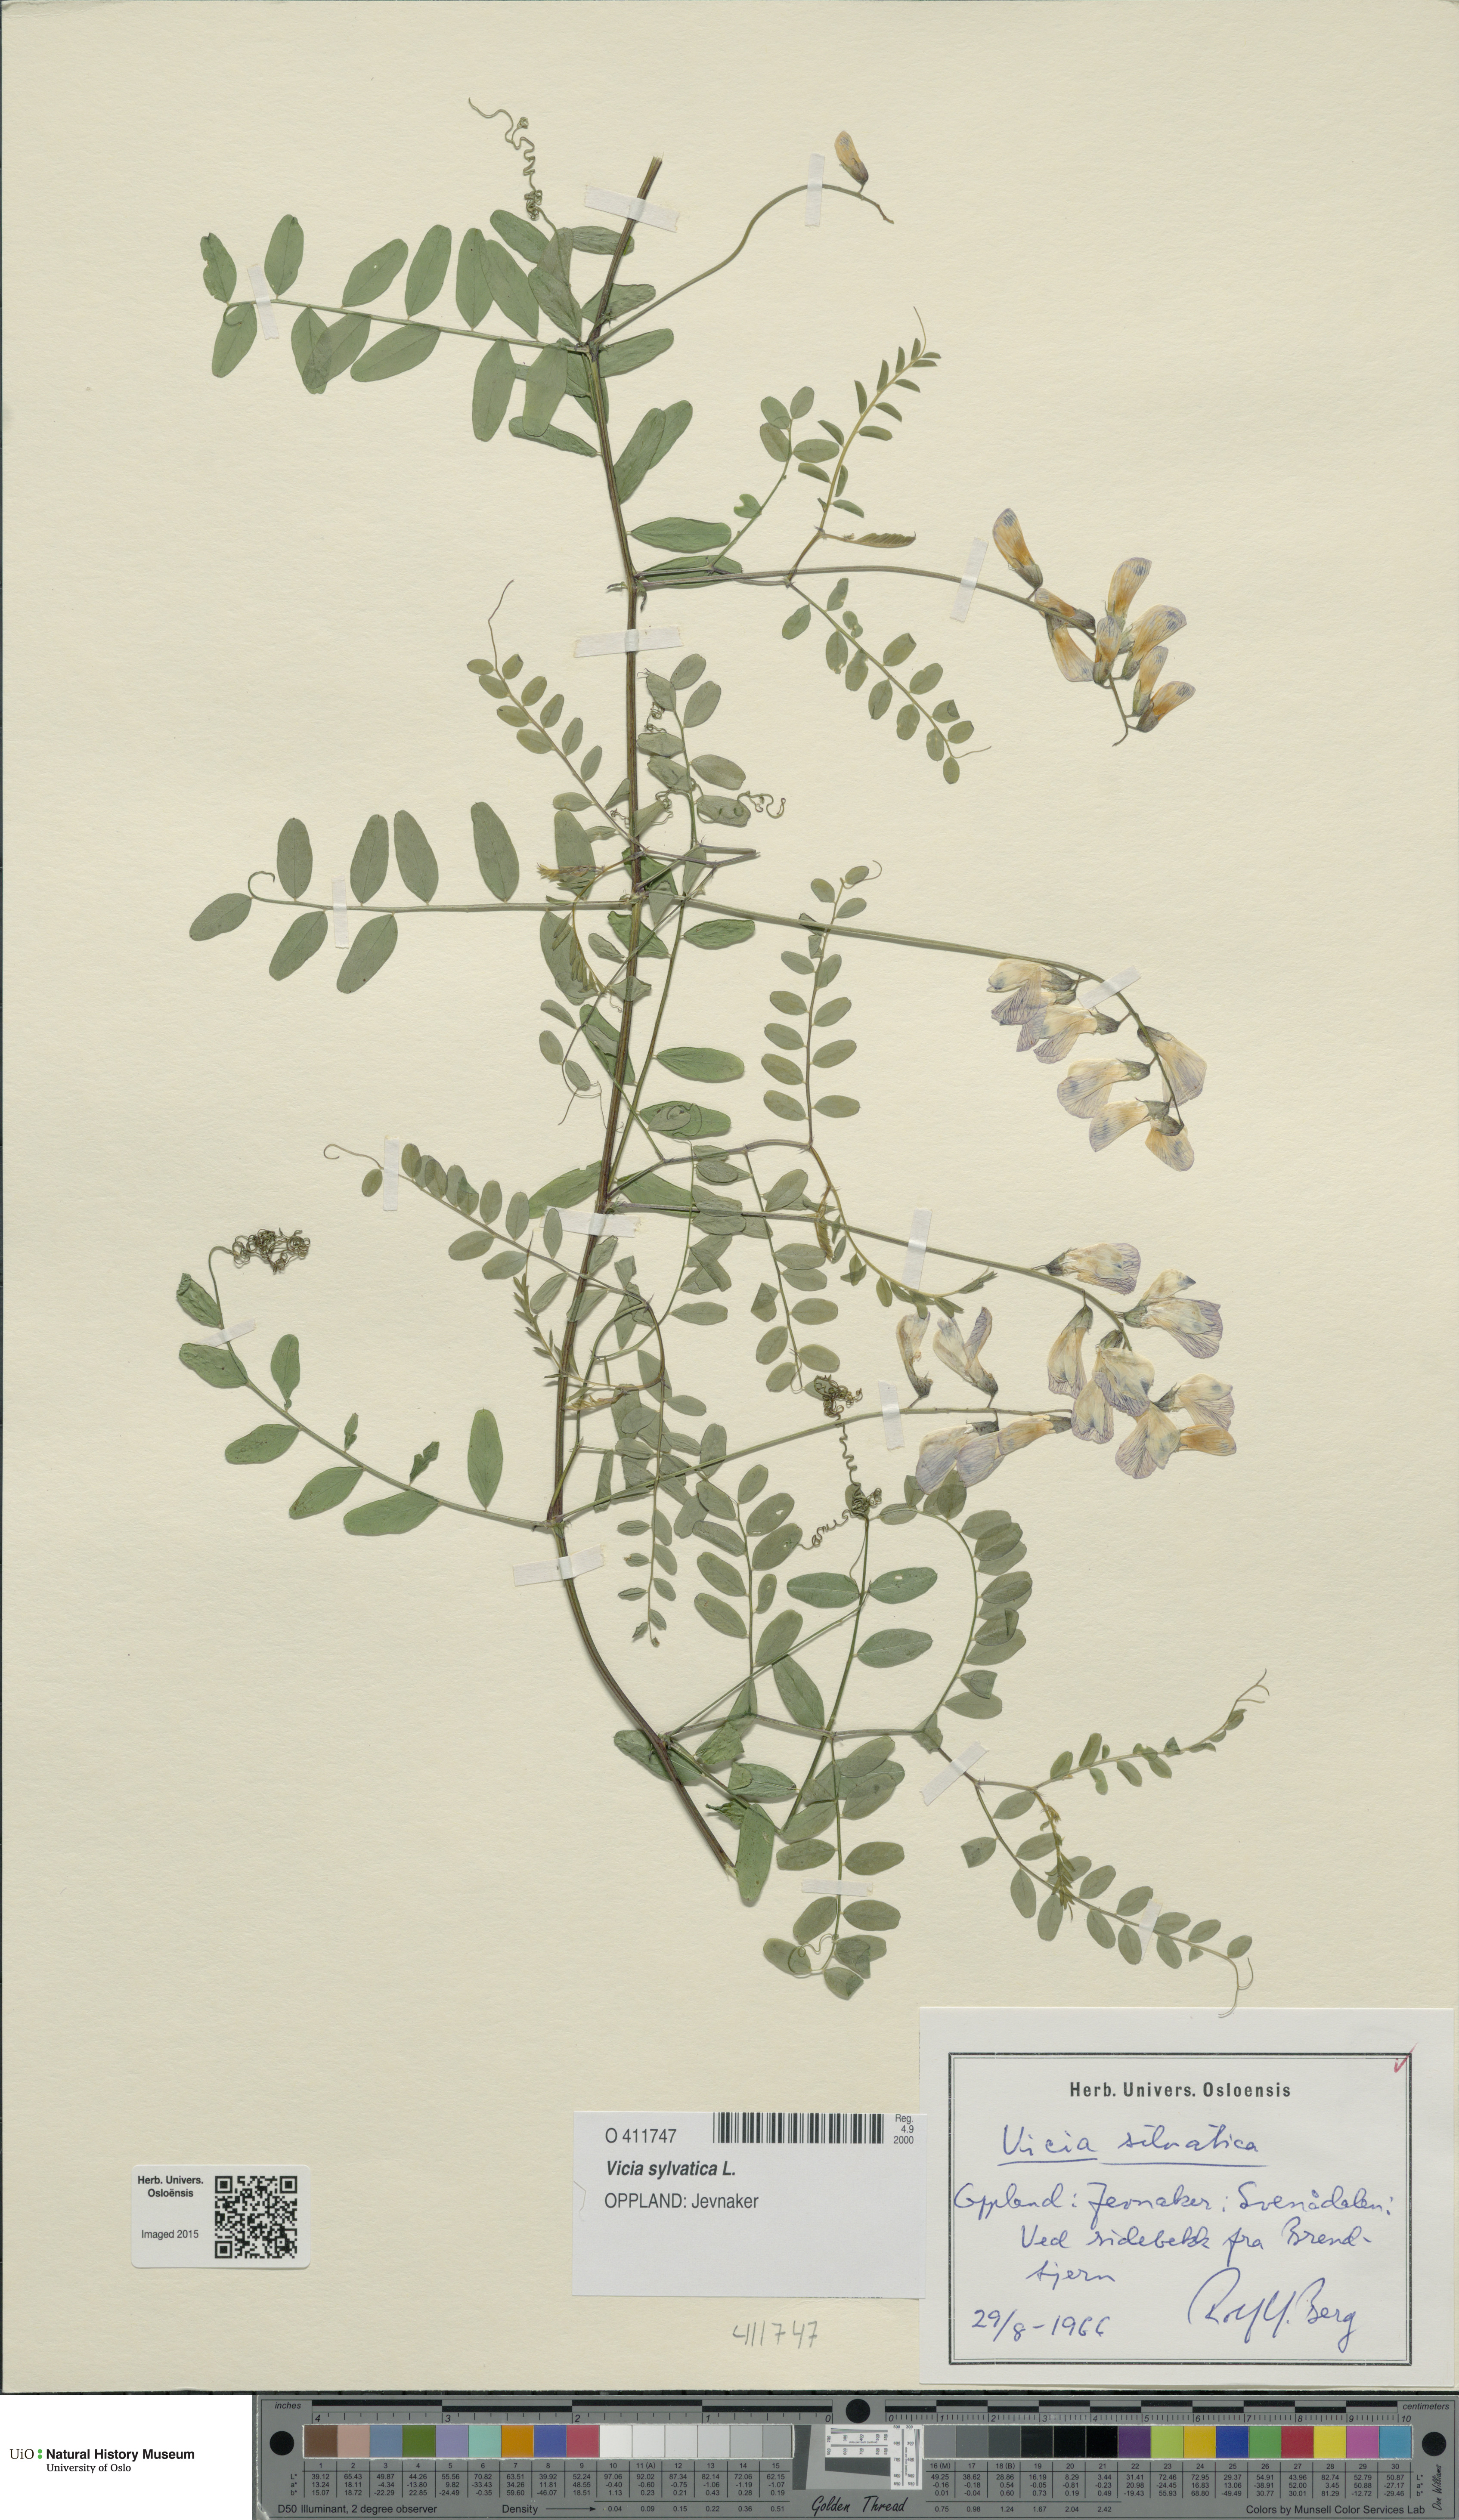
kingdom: Plantae
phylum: Tracheophyta
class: Magnoliopsida
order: Fabales
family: Fabaceae
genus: Vicia
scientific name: Vicia sylvatica
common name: Wood vetch
